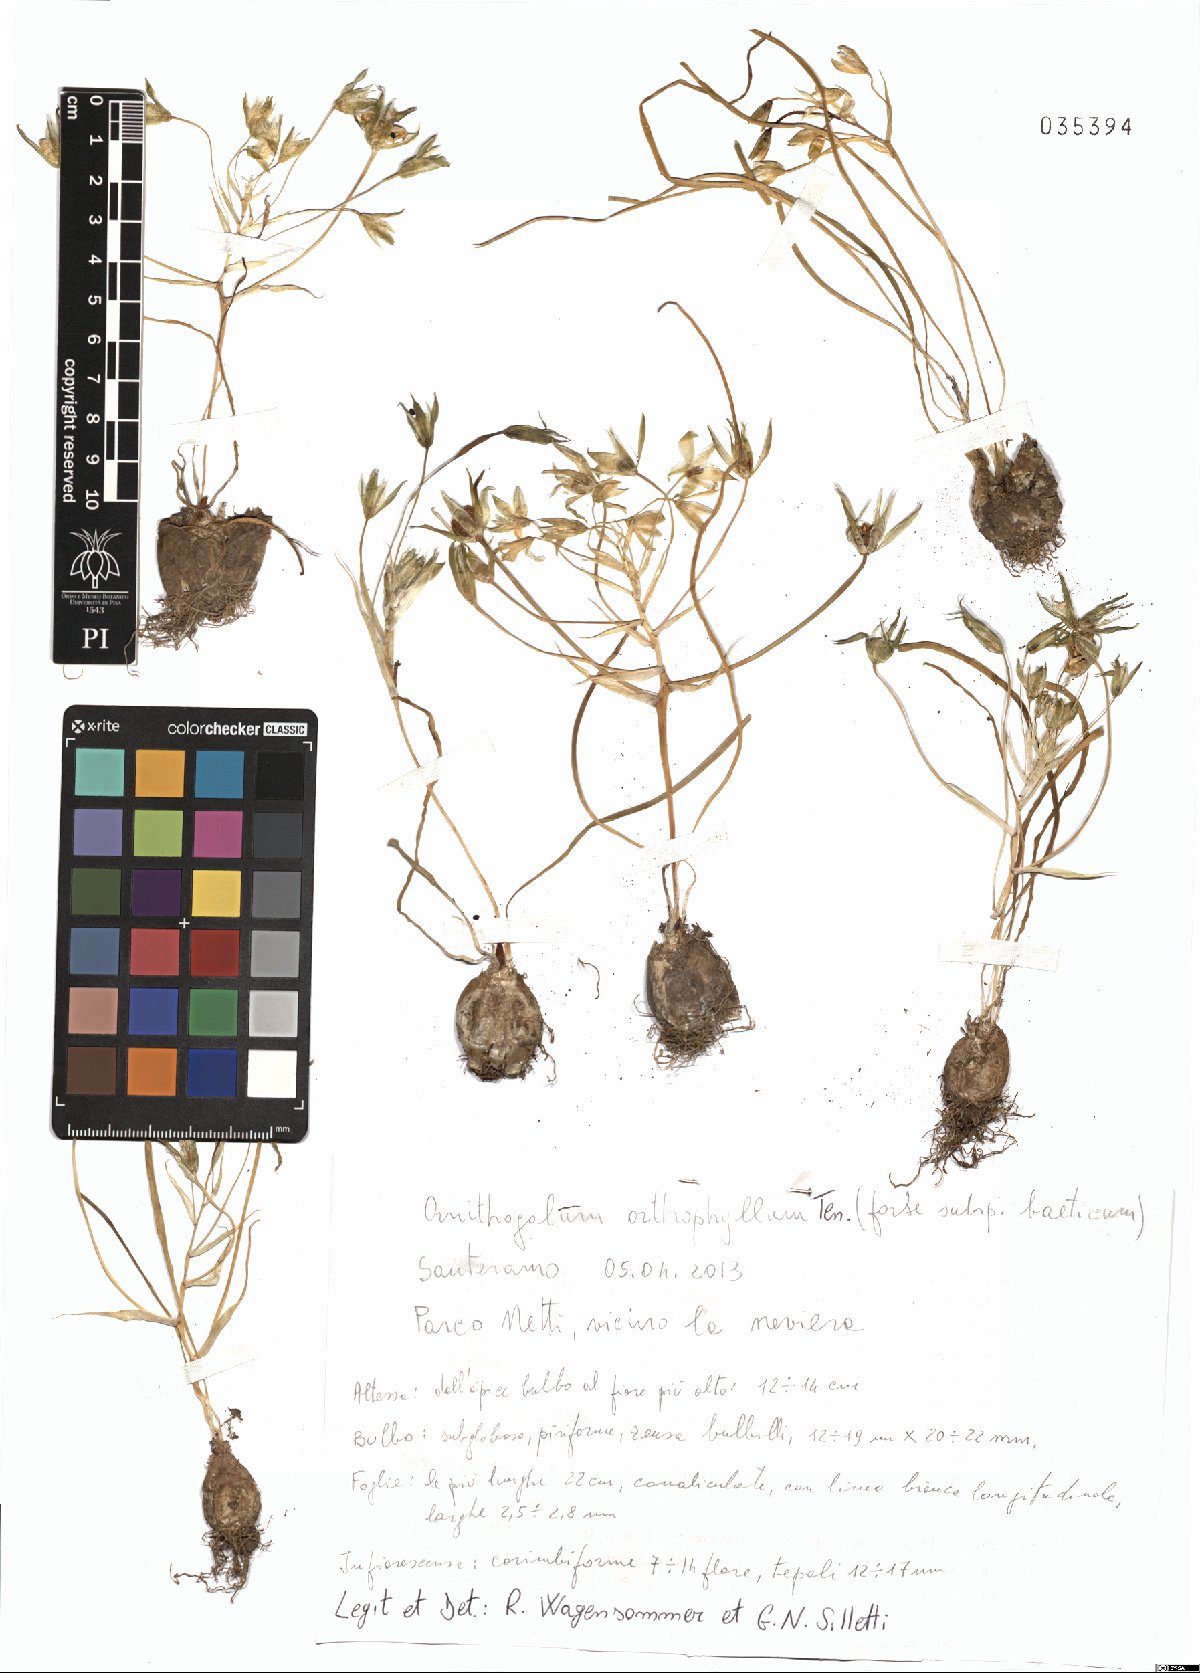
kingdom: Plantae
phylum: Tracheophyta
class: Liliopsida
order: Asparagales
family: Asparagaceae
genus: Ornithogalum
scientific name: Ornithogalum orthophyllum
